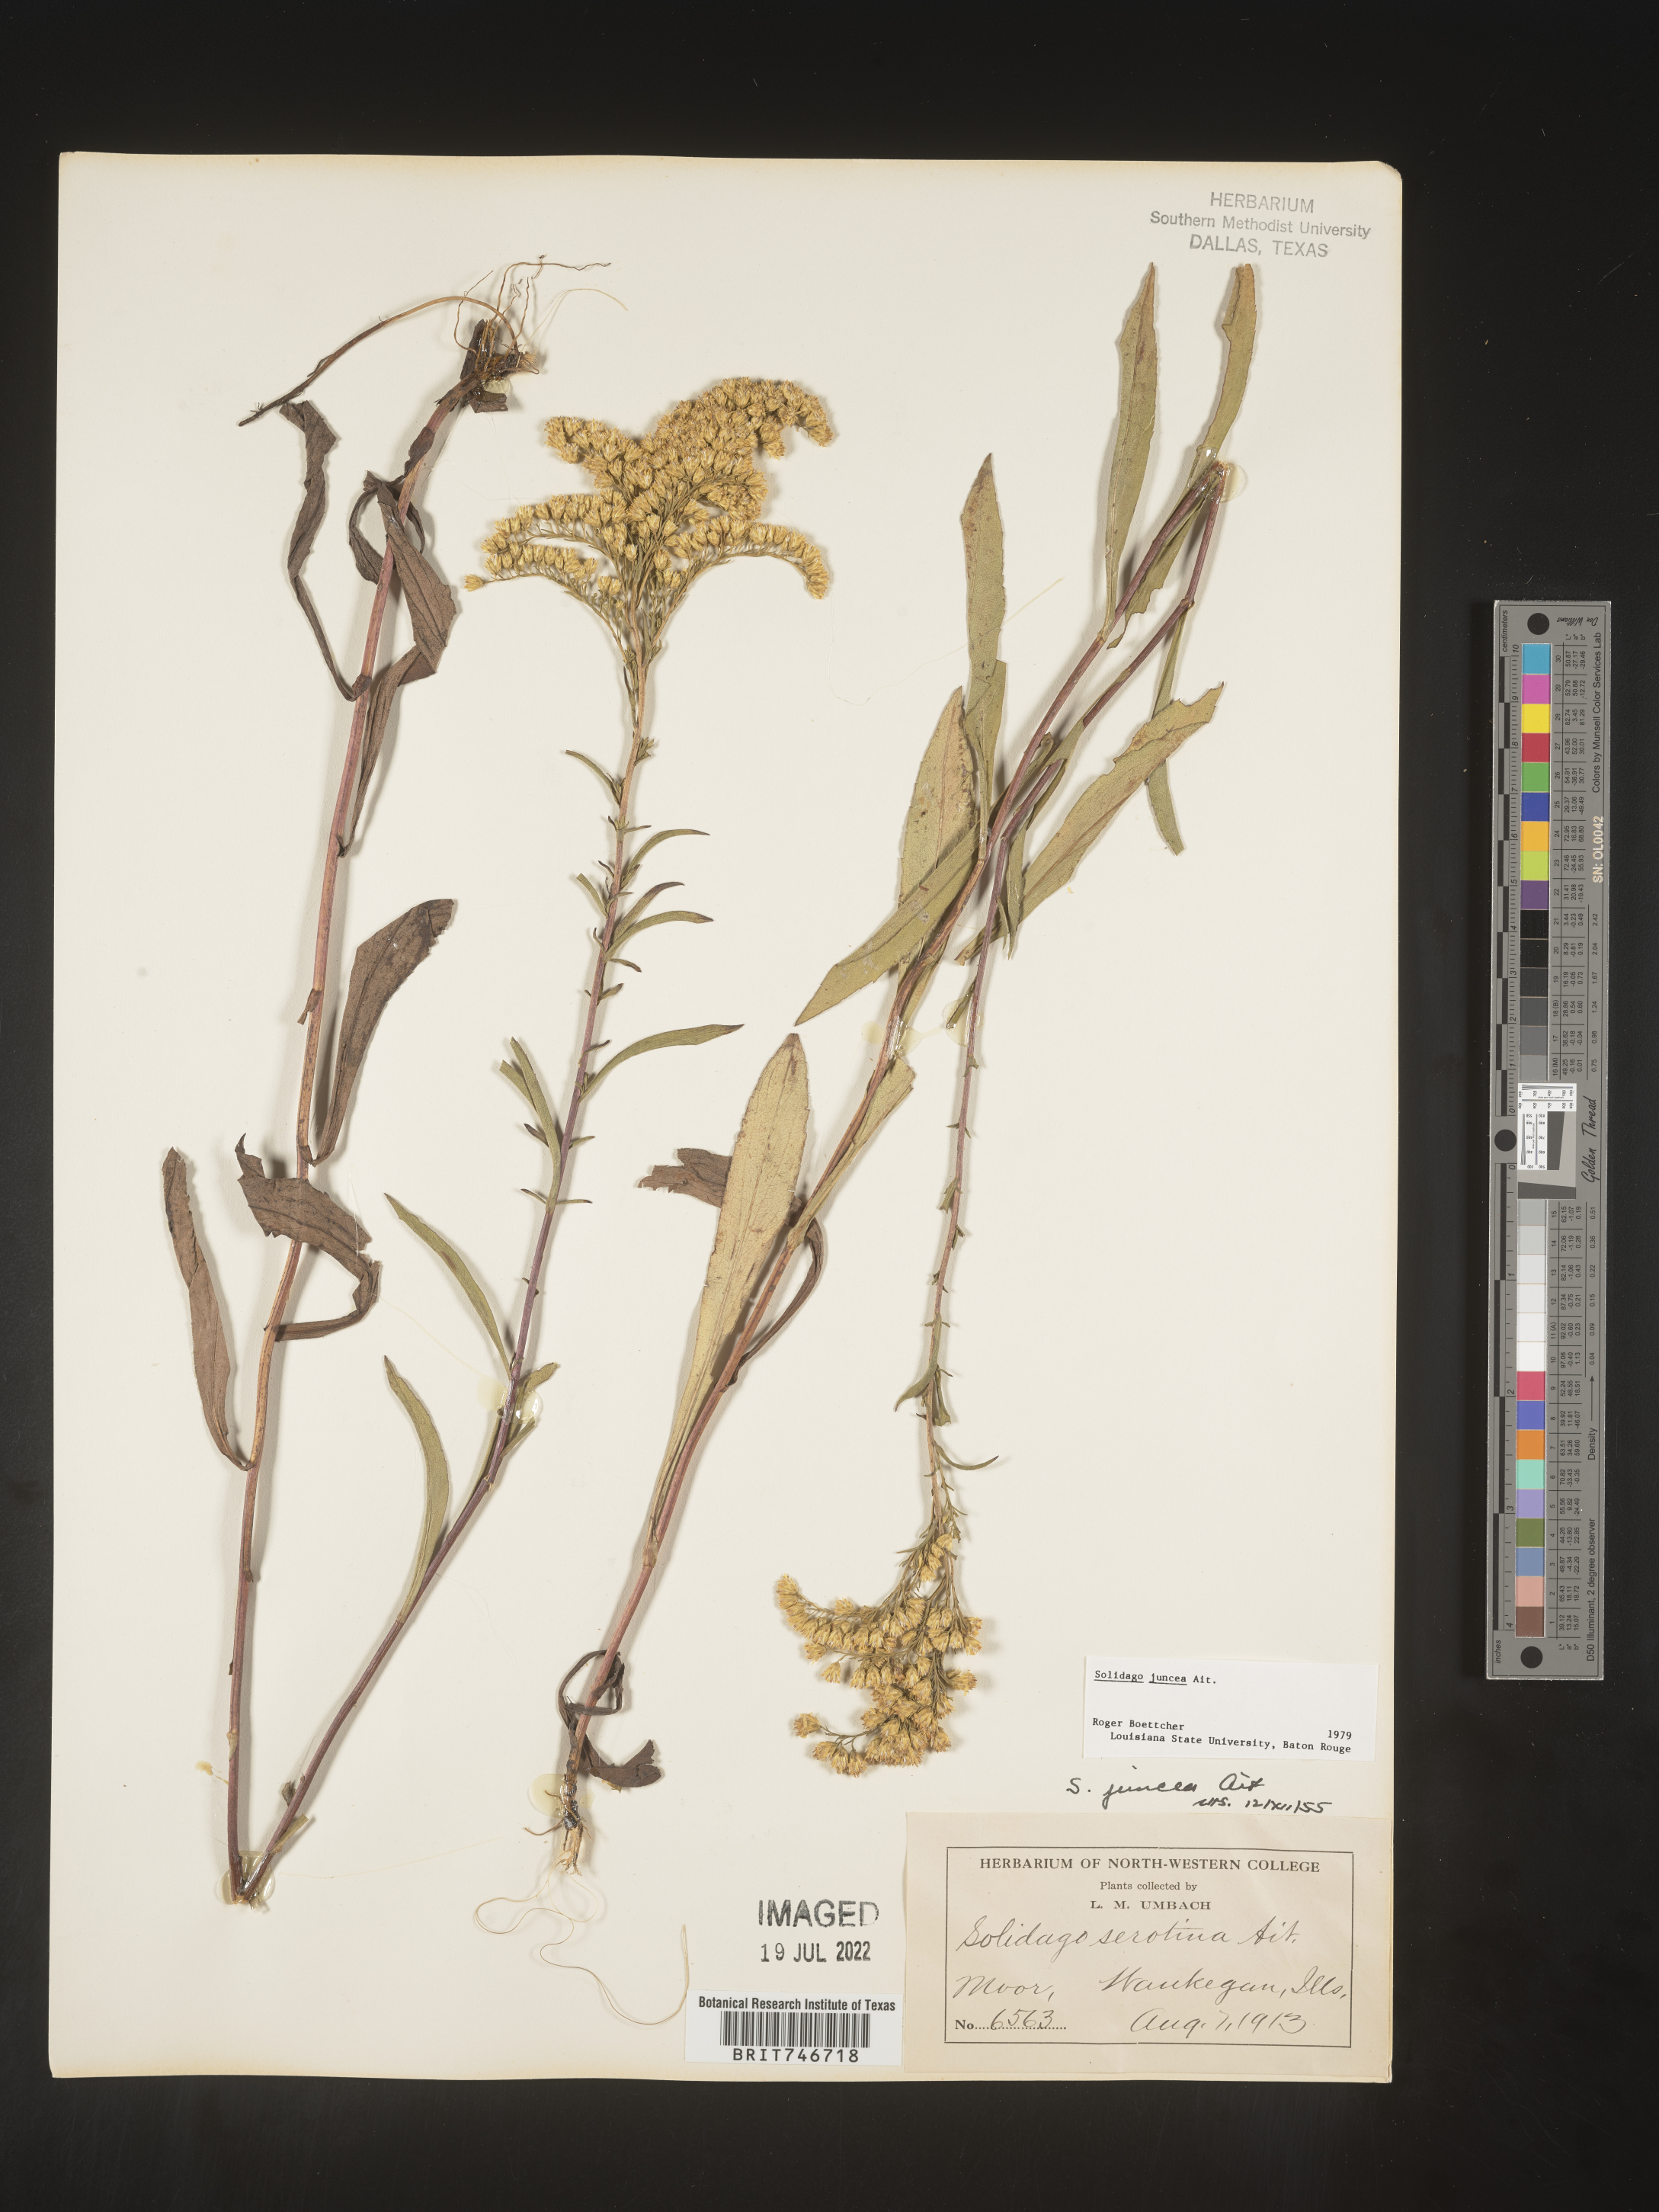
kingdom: Plantae
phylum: Tracheophyta
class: Magnoliopsida
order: Asterales
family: Asteraceae
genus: Solidago
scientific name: Solidago juncea
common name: Early goldenrod
